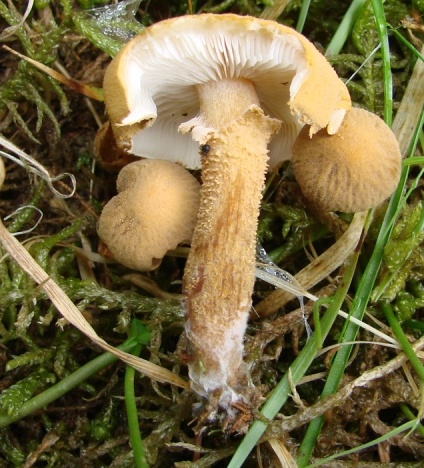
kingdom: Fungi
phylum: Basidiomycota
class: Agaricomycetes
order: Agaricales
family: Tricholomataceae
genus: Cystoderma
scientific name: Cystoderma amianthinum
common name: okkergul grynhat
